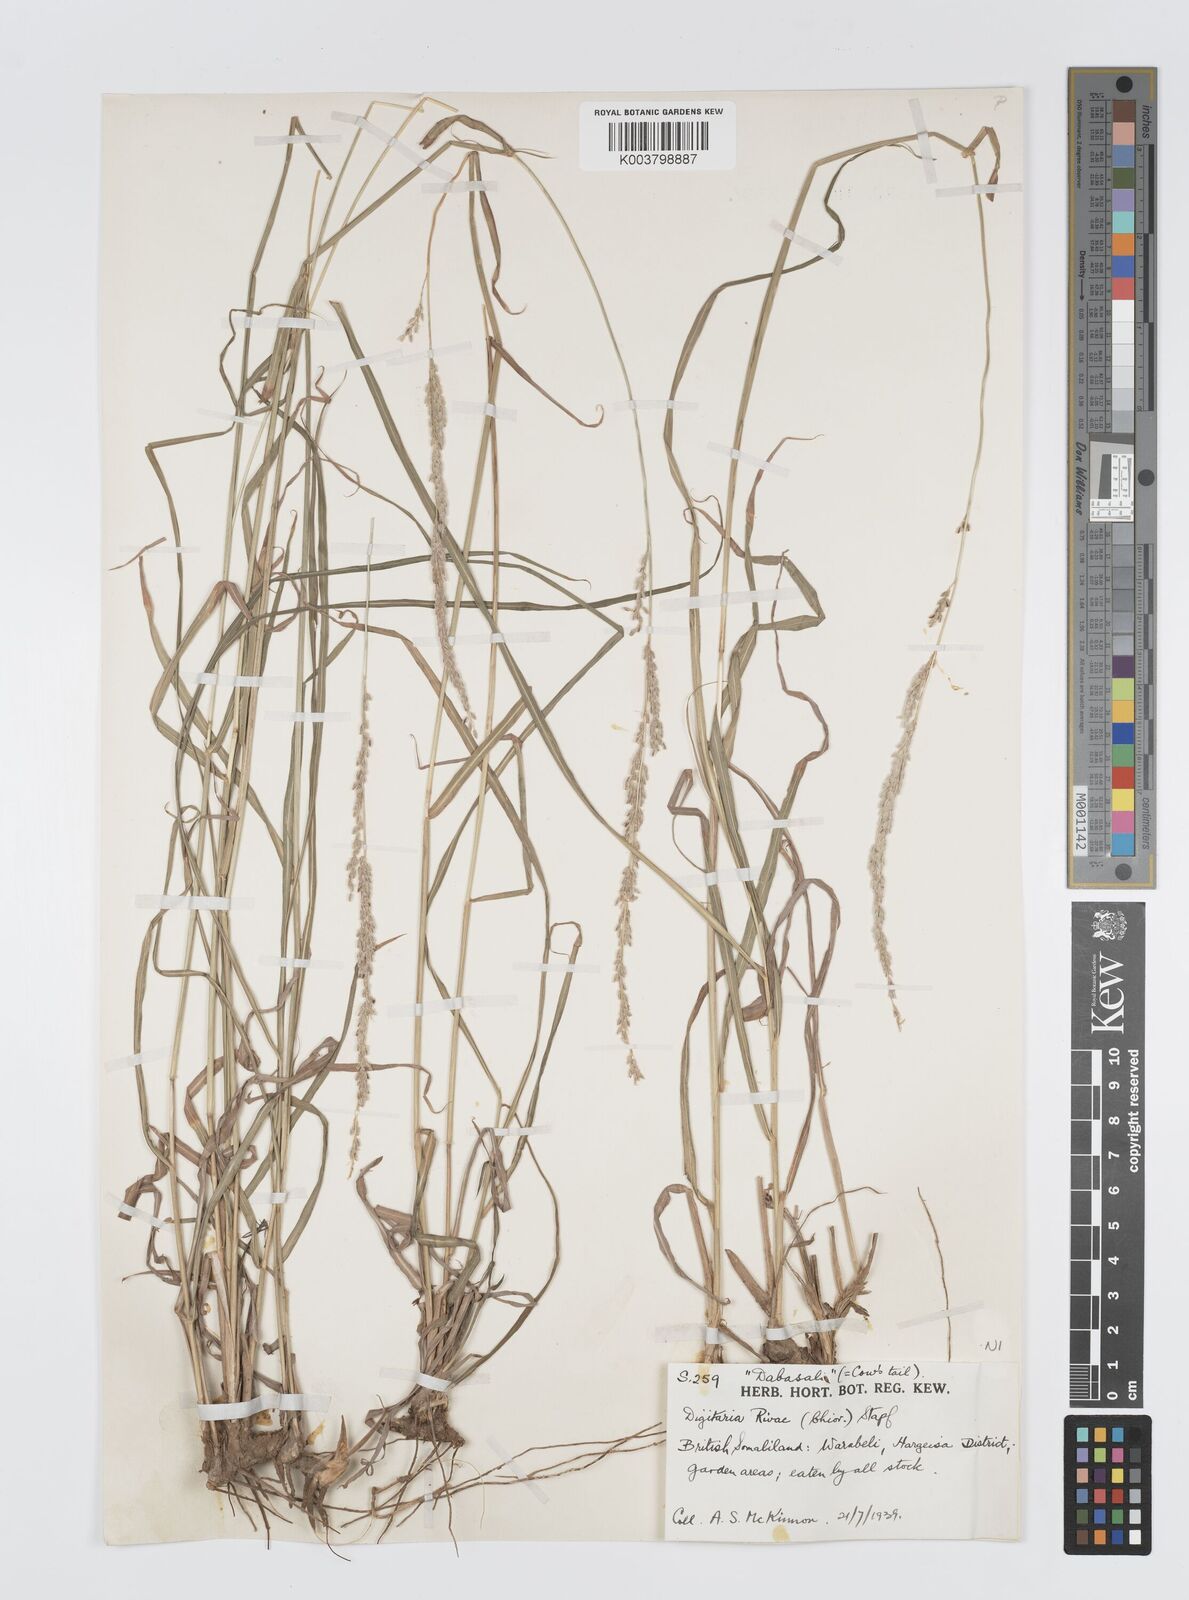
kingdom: Plantae
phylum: Tracheophyta
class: Liliopsida
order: Poales
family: Poaceae
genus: Digitaria
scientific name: Digitaria rivae
